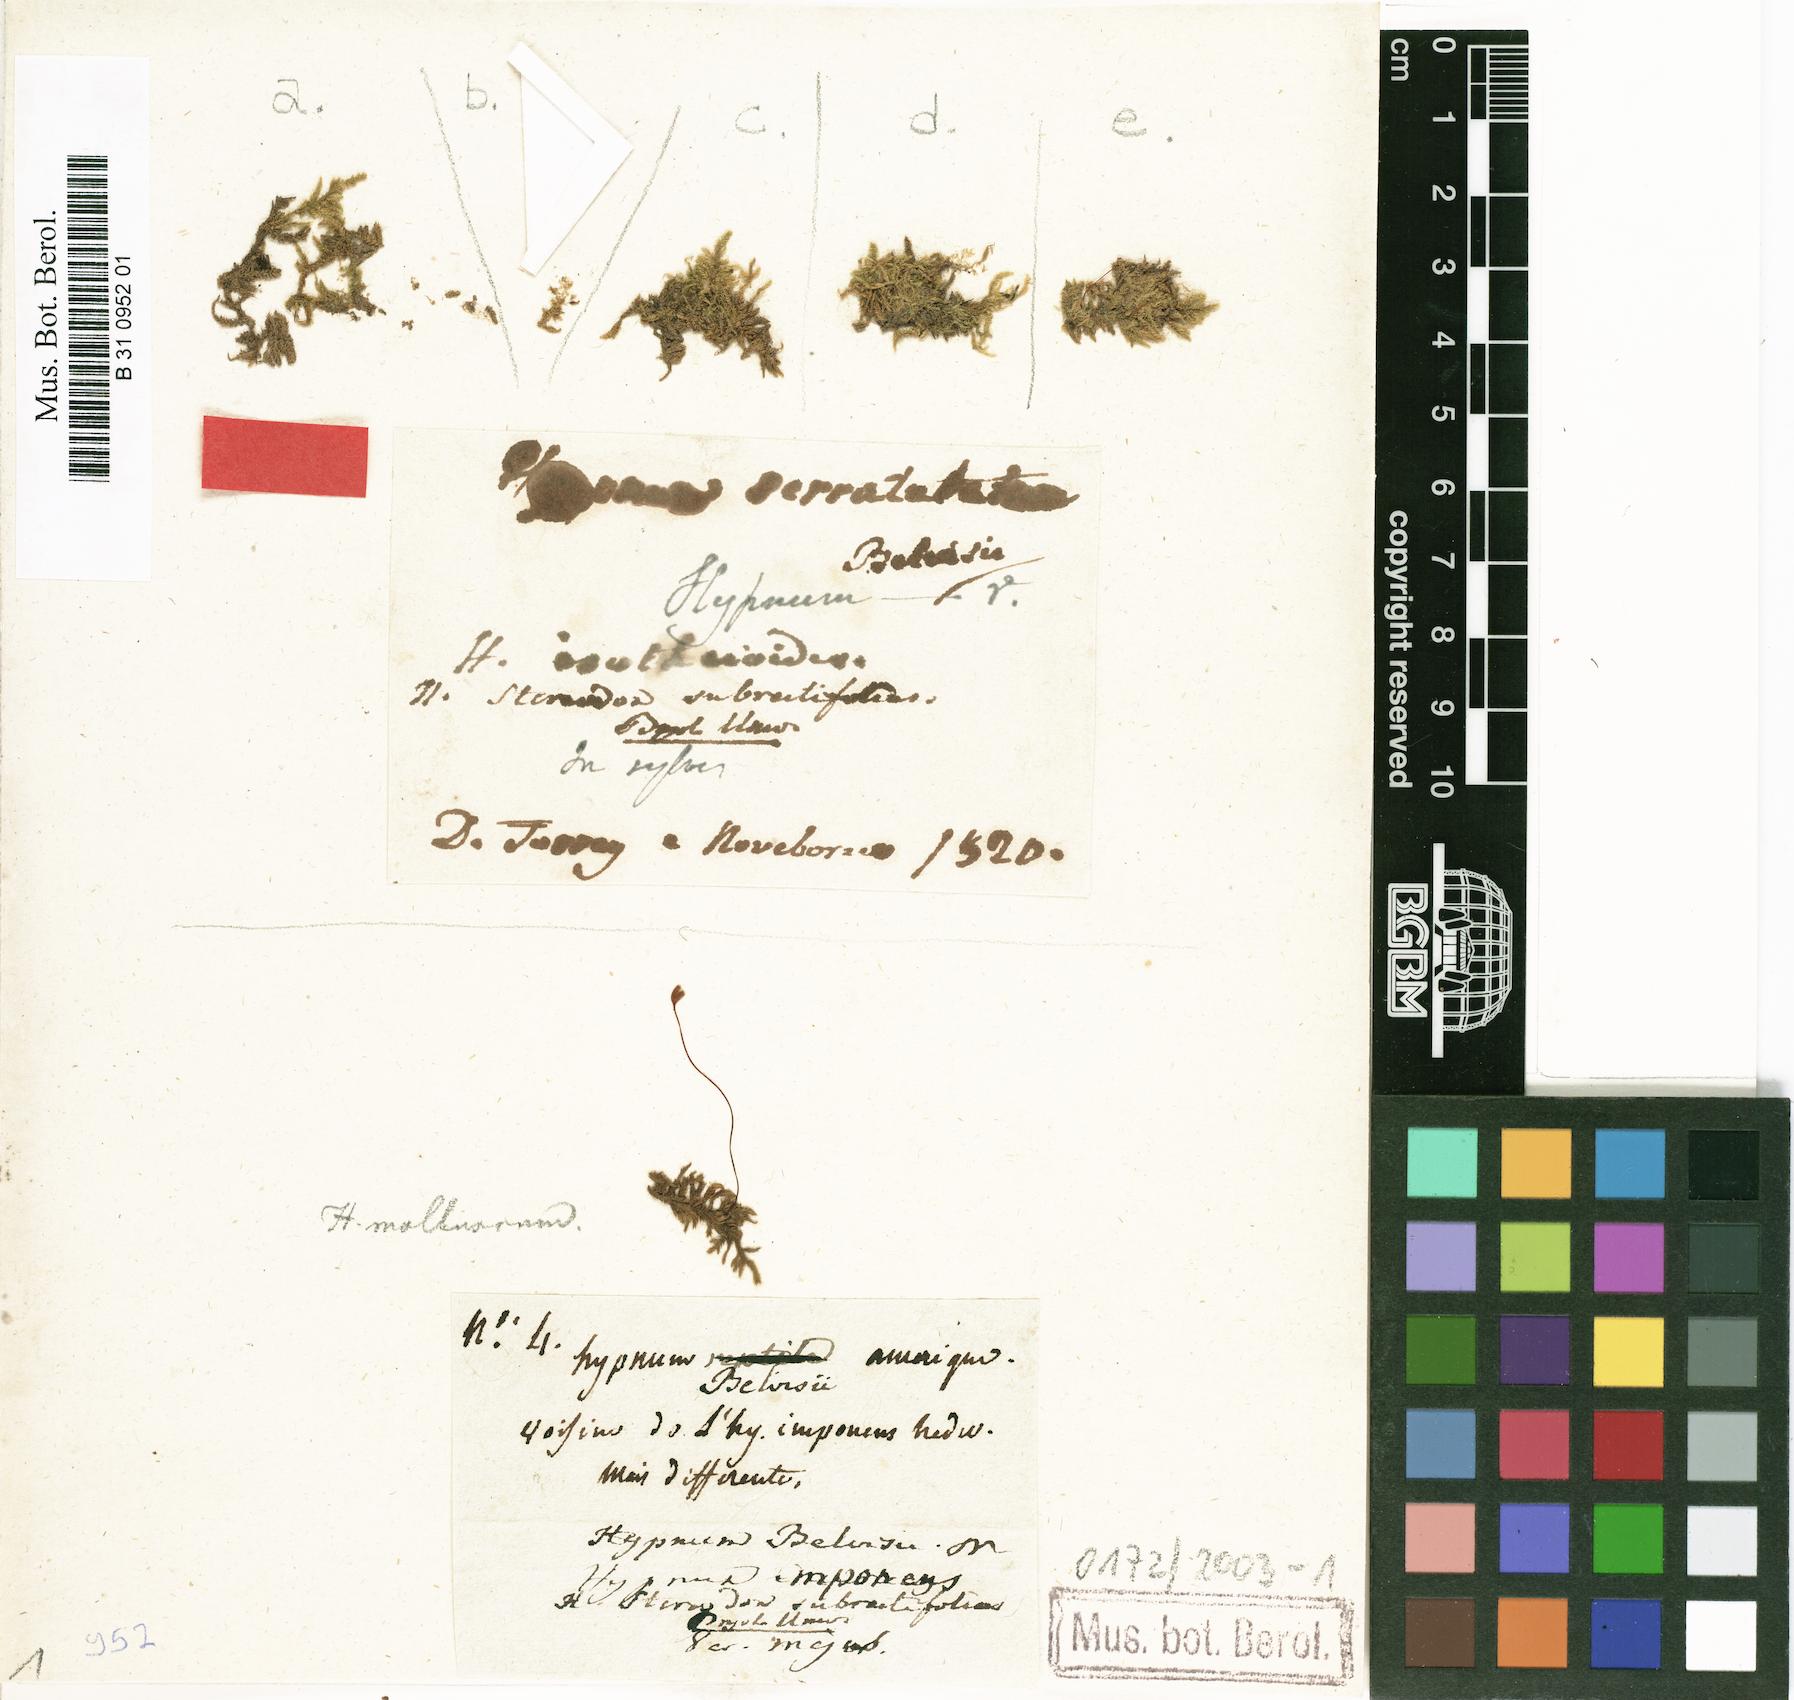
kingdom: Plantae
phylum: Bryophyta
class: Bryopsida
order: Hypnales
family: Myuriaceae
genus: Ctenidium
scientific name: Ctenidium subrectifolium
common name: Chalk comb moss
